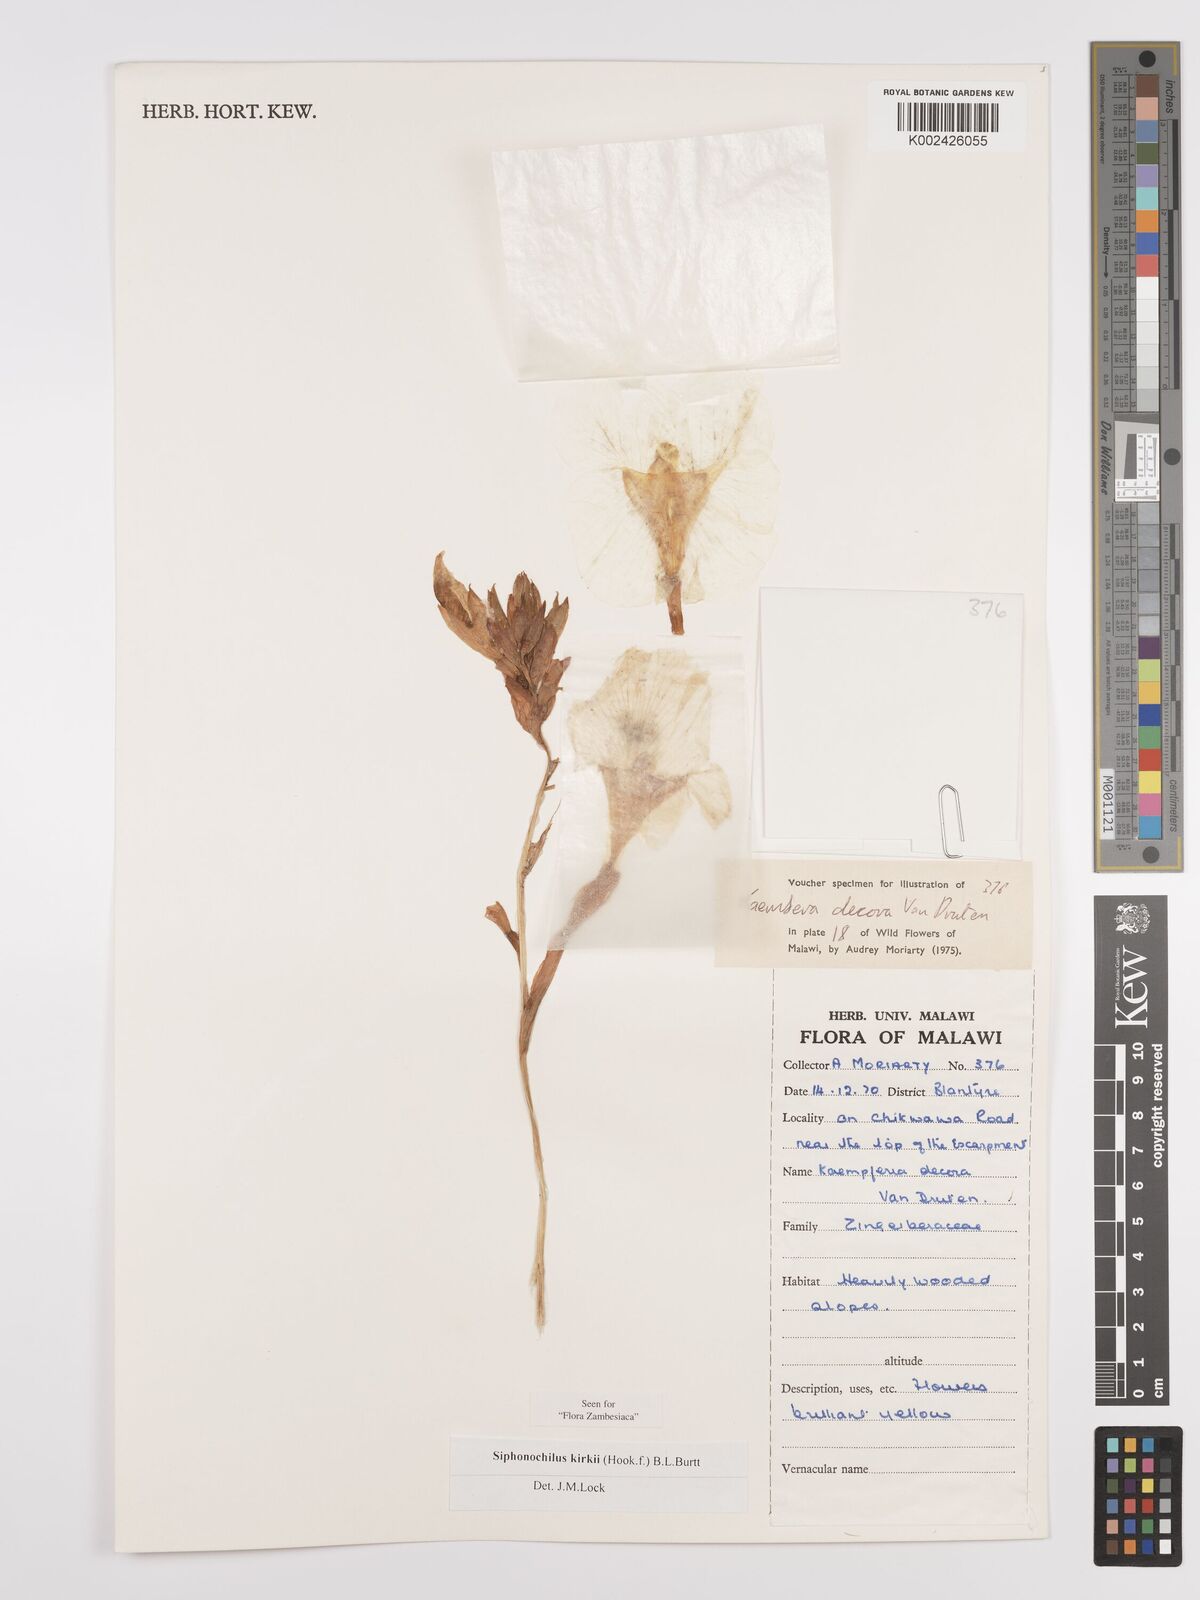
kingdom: Plantae
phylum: Tracheophyta
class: Liliopsida
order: Zingiberales
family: Zingiberaceae
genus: Siphonochilus
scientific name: Siphonochilus kirkii
